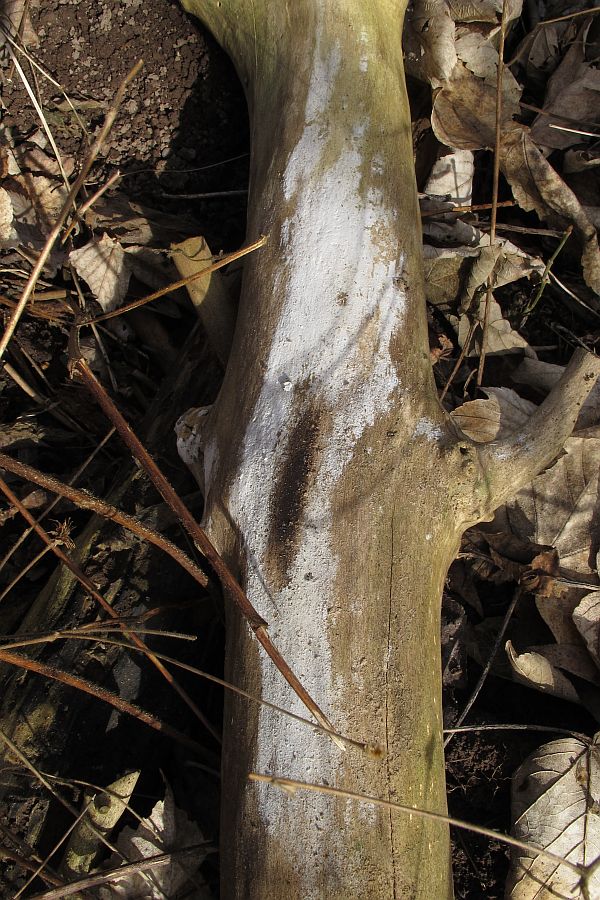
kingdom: Fungi
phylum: Basidiomycota
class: Agaricomycetes
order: Corticiales
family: Corticiaceae
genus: Lyomyces
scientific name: Lyomyces sambuci
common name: almindelig hyldehinde
